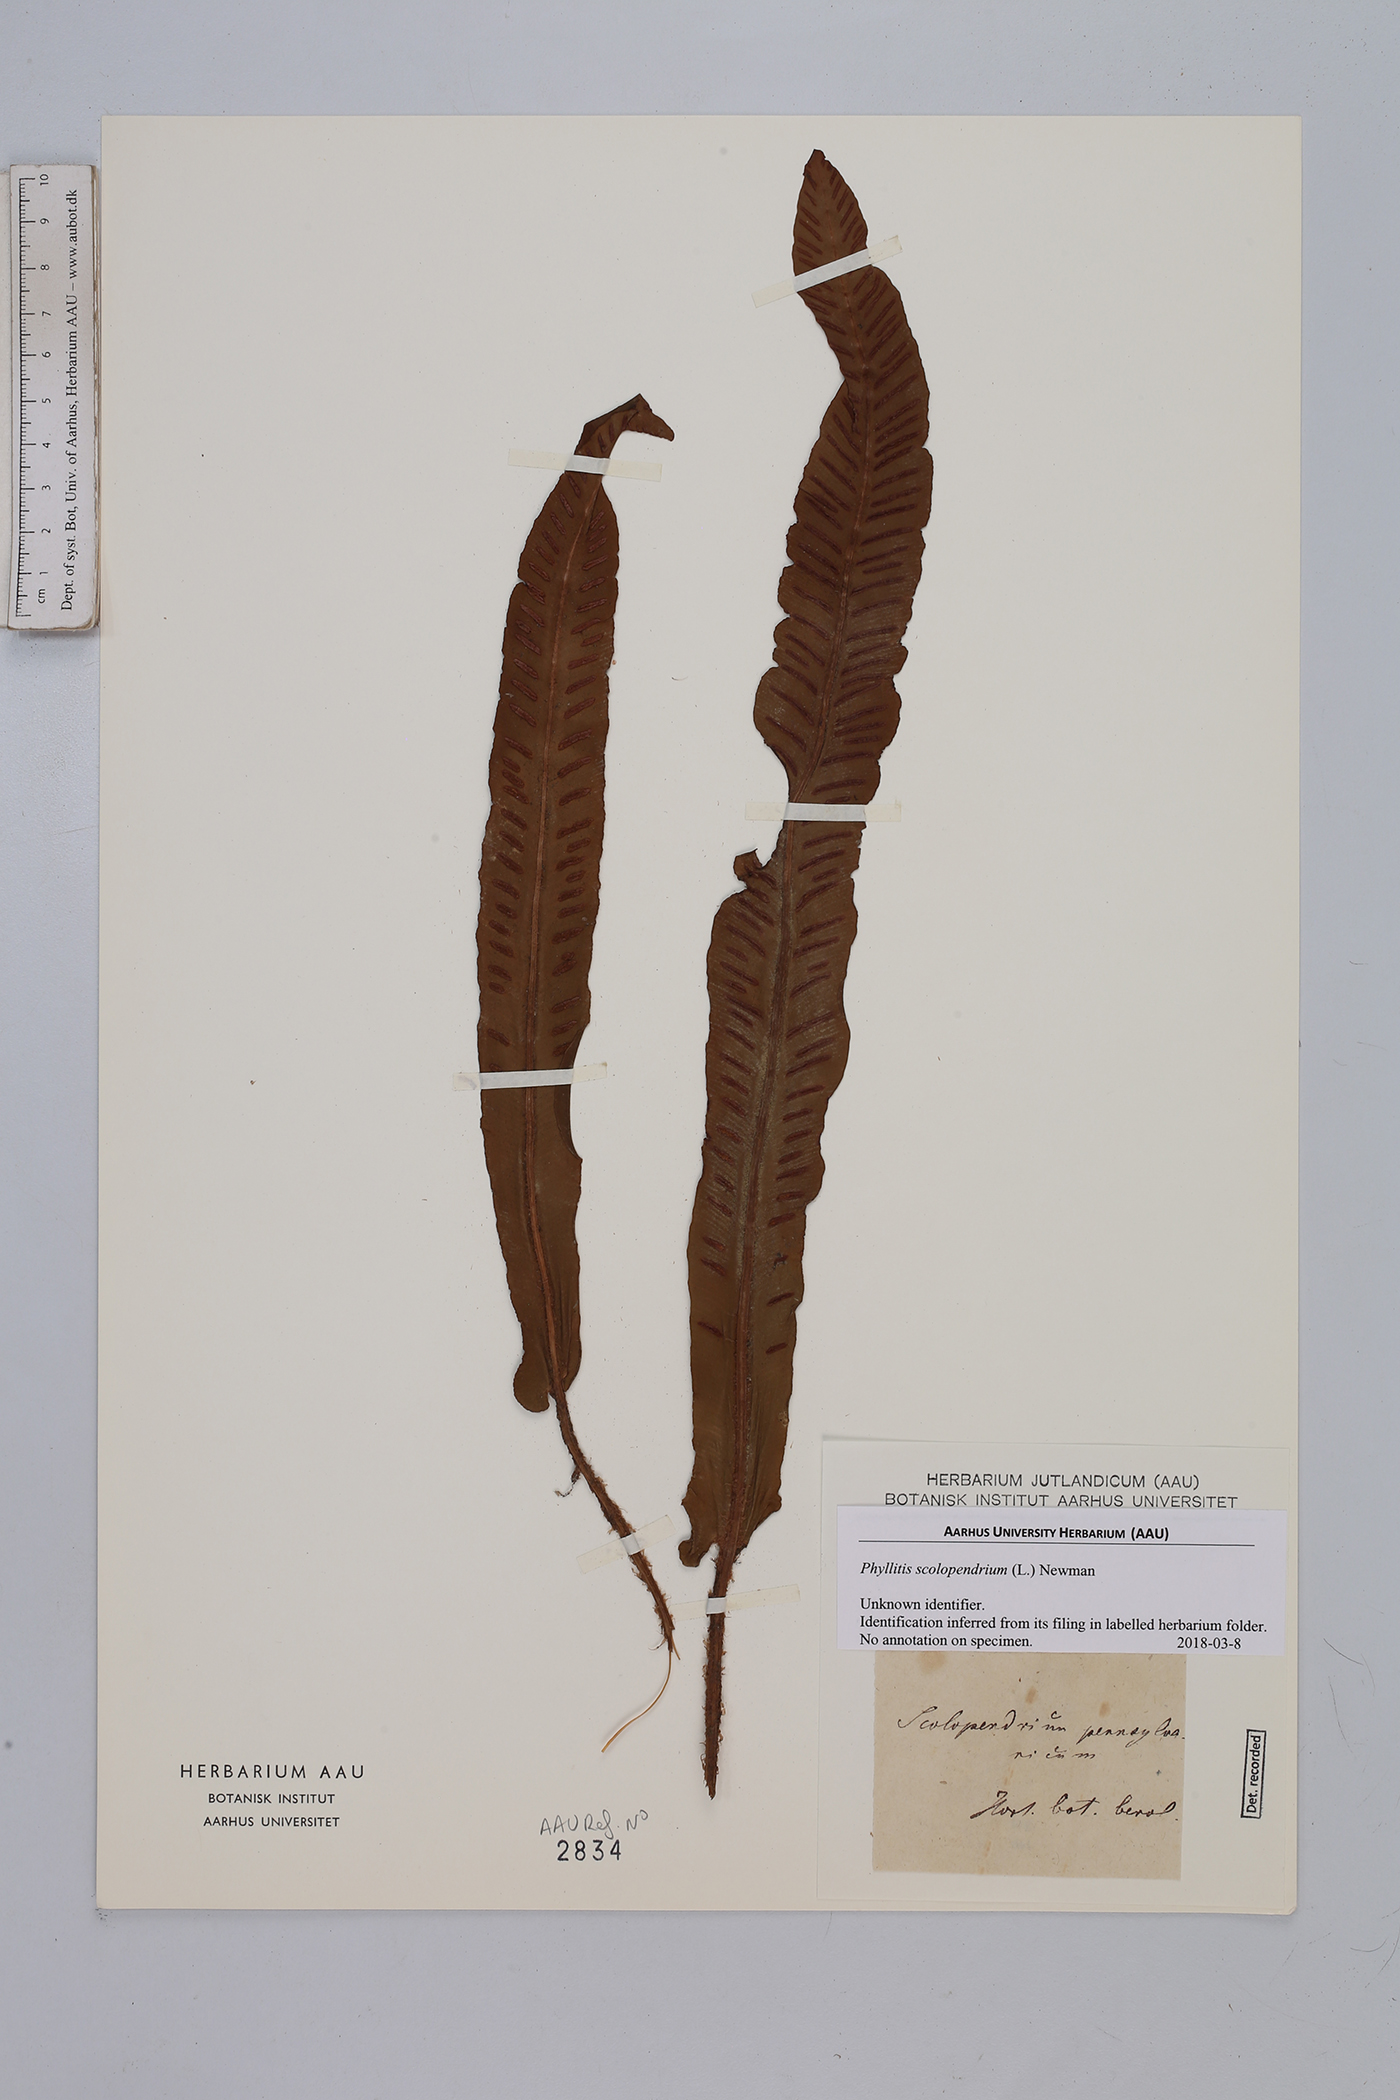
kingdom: Plantae
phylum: Tracheophyta
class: Polypodiopsida
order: Polypodiales
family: Aspleniaceae
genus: Asplenium
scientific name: Asplenium scolopendrium
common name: Hart's-tongue fern
